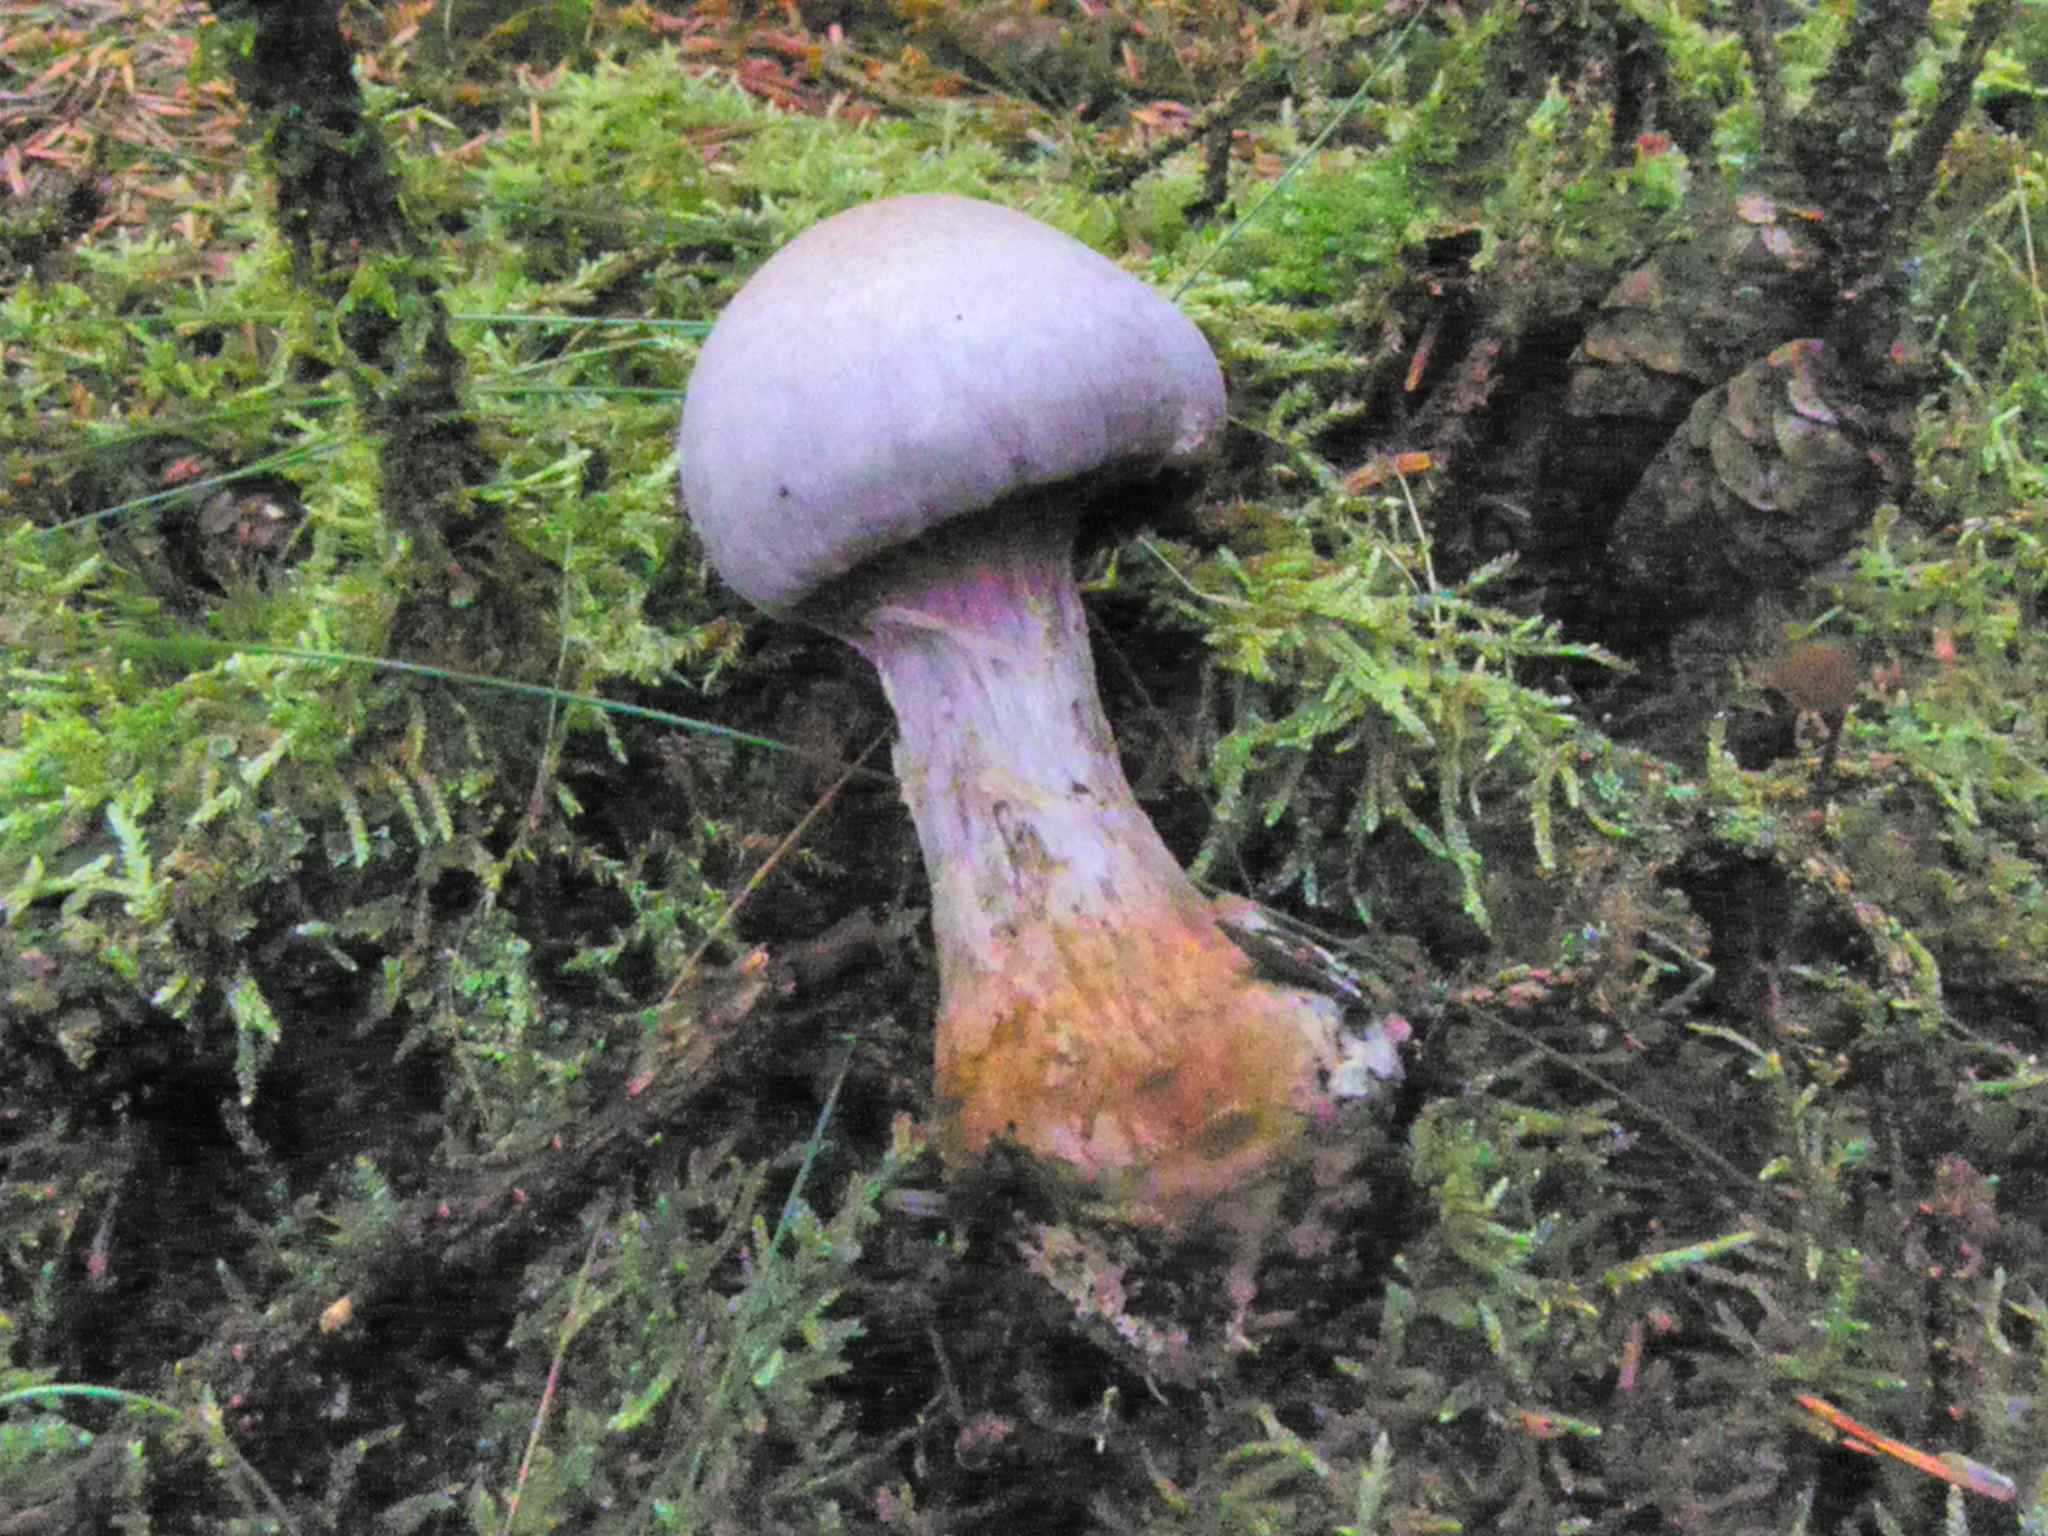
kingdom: Fungi
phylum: Basidiomycota
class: Agaricomycetes
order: Agaricales
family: Cortinariaceae
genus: Cortinarius
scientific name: Cortinarius traganus
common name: safrankødet slørhat
